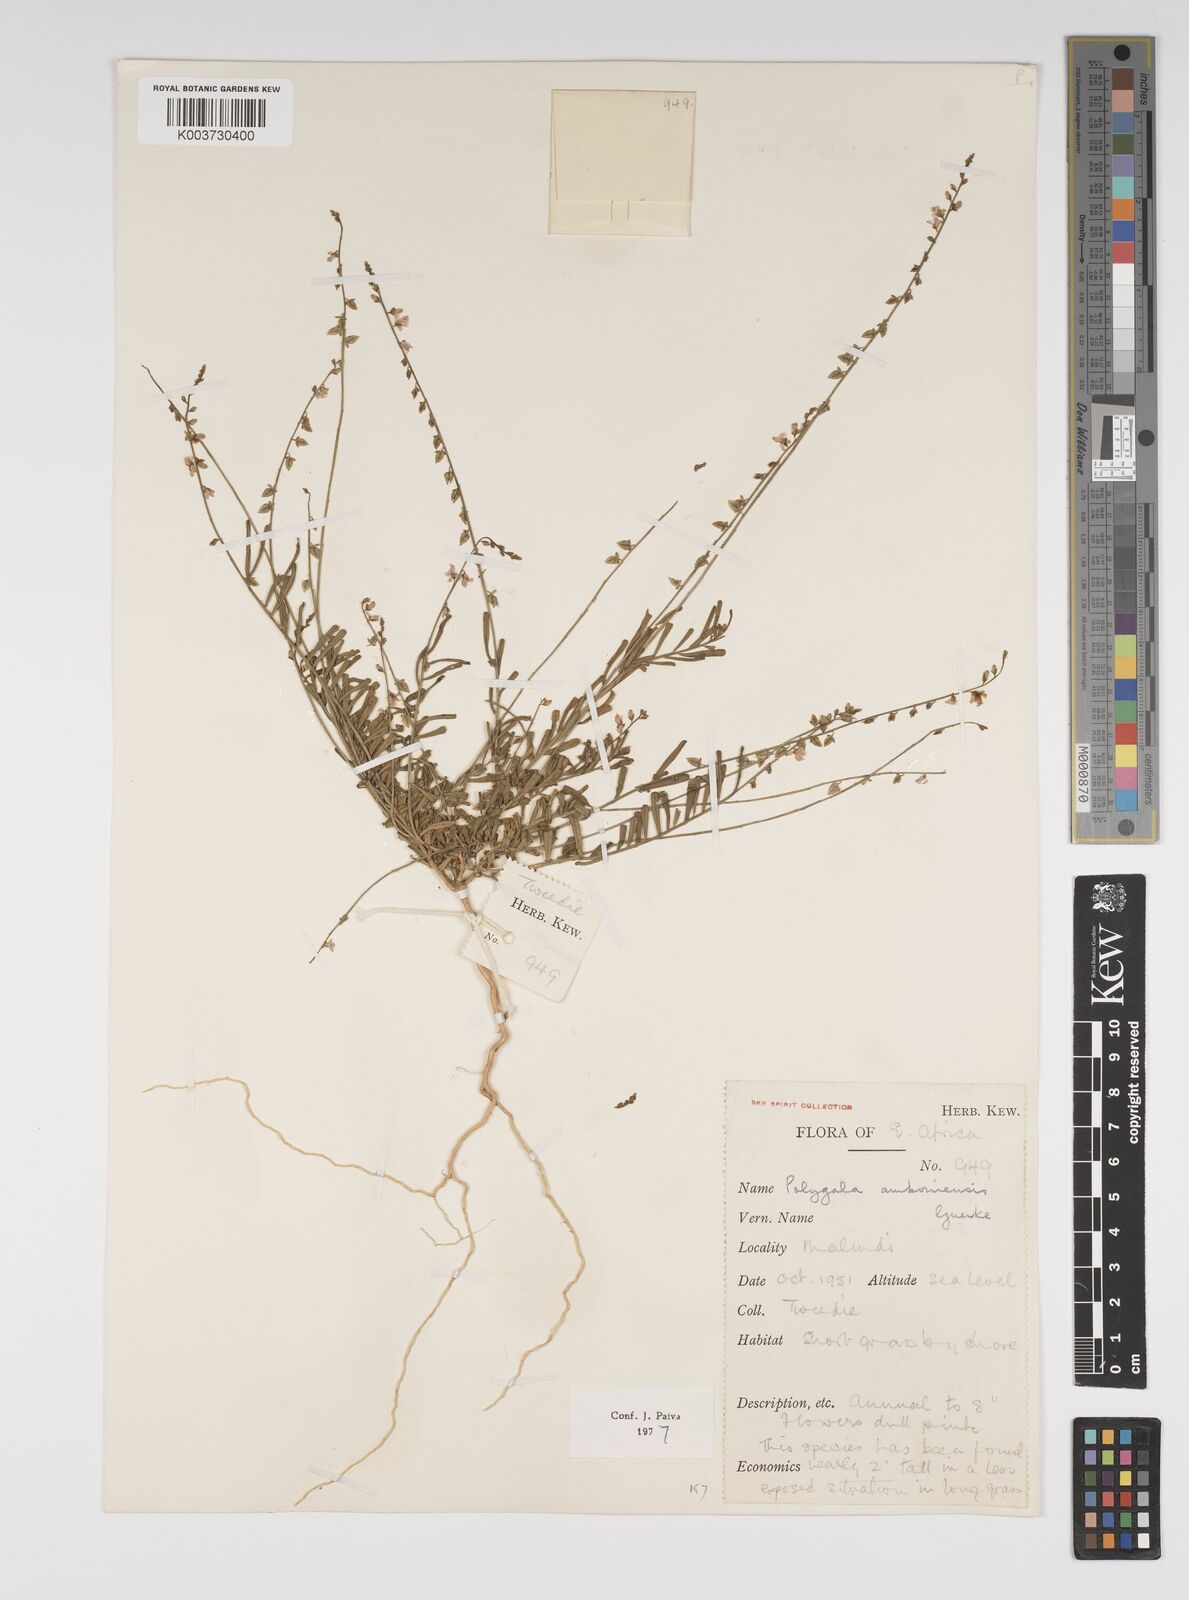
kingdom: Plantae
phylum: Tracheophyta
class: Magnoliopsida
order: Fabales
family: Polygalaceae
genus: Polygala
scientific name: Polygala amboniensis
